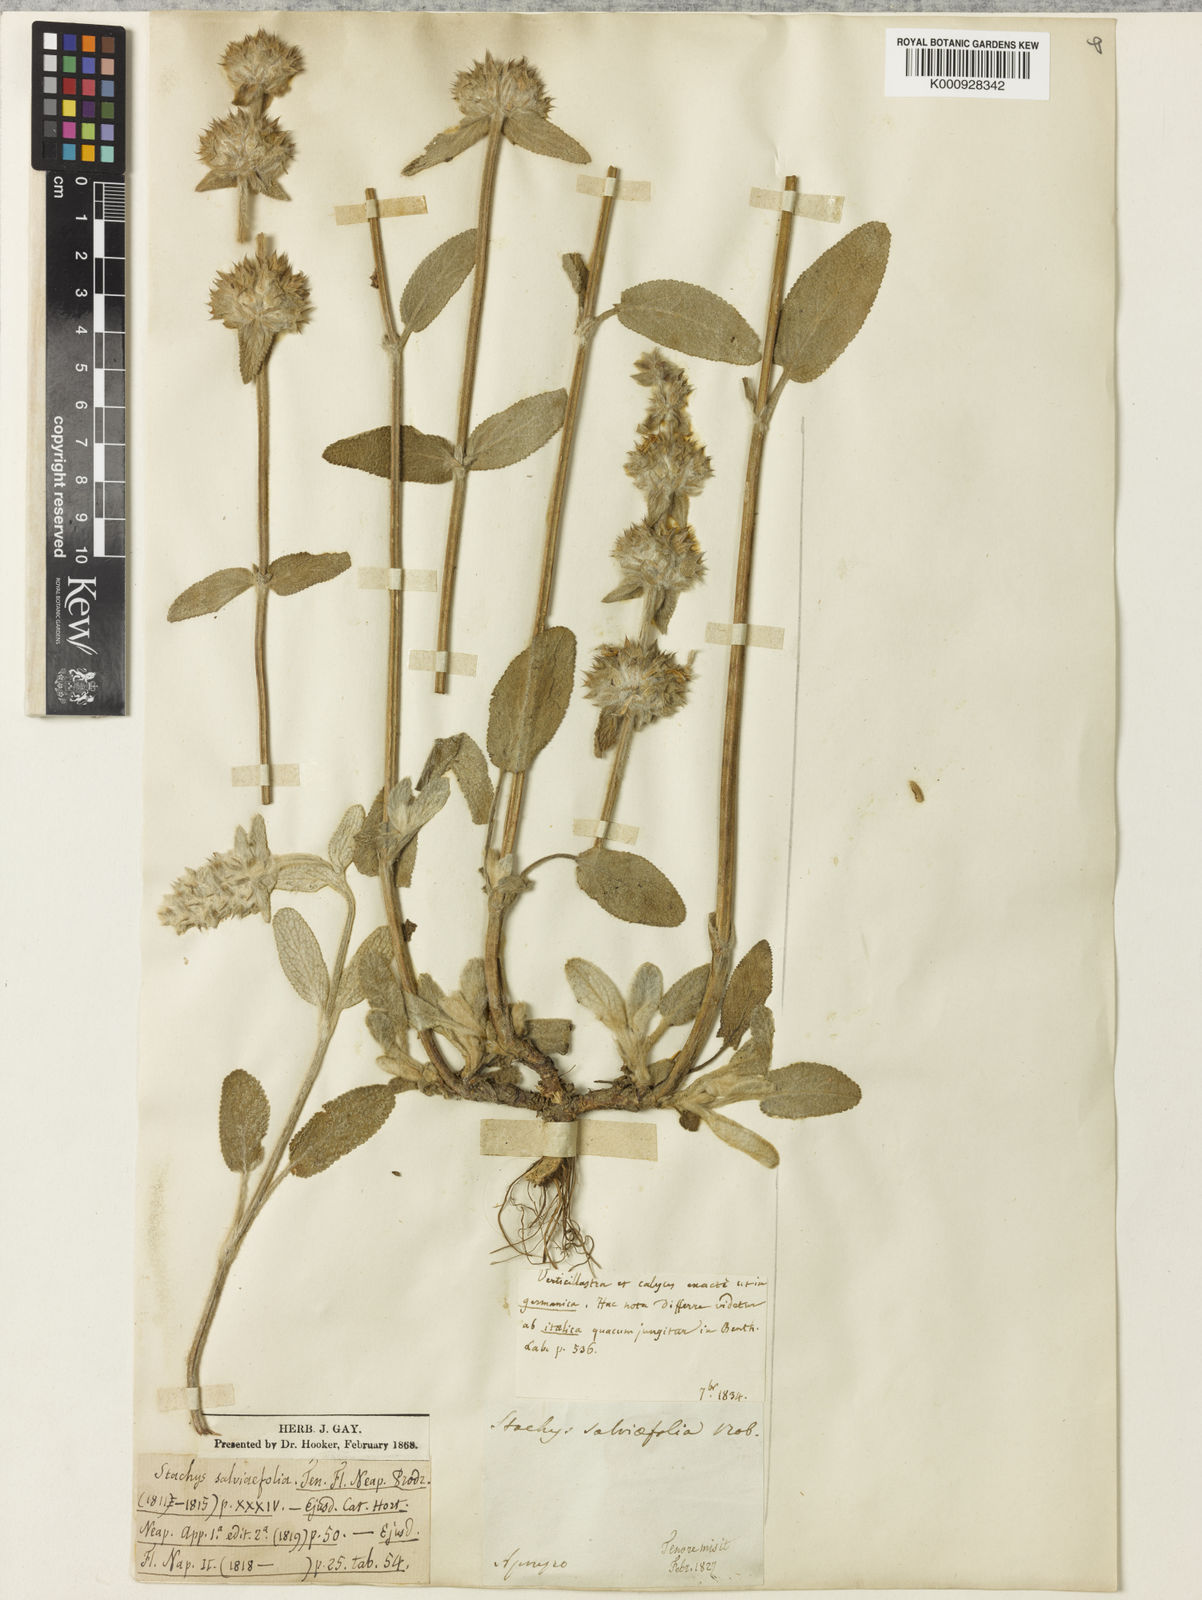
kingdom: Plantae
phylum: Tracheophyta
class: Magnoliopsida
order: Lamiales
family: Lamiaceae
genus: Stachys
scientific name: Stachys cretica
